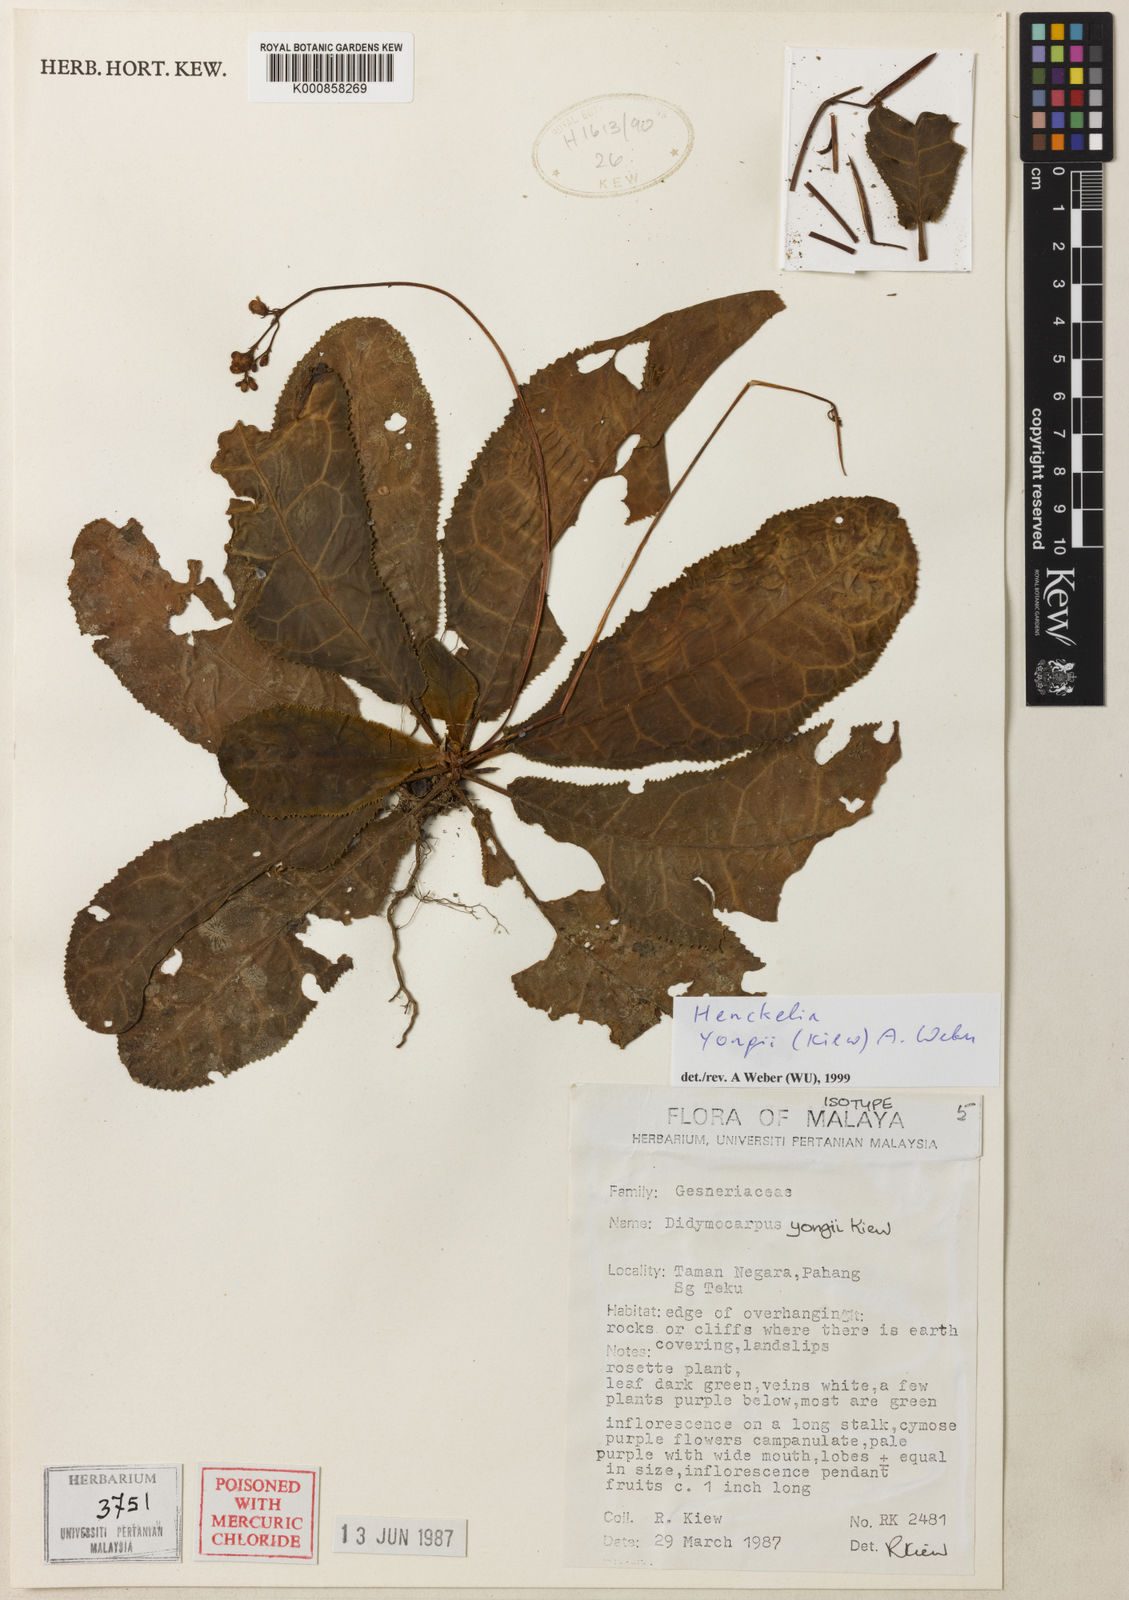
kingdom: Plantae
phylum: Tracheophyta
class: Magnoliopsida
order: Lamiales
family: Gesneriaceae
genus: Codonoboea
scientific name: Codonoboea yongii
